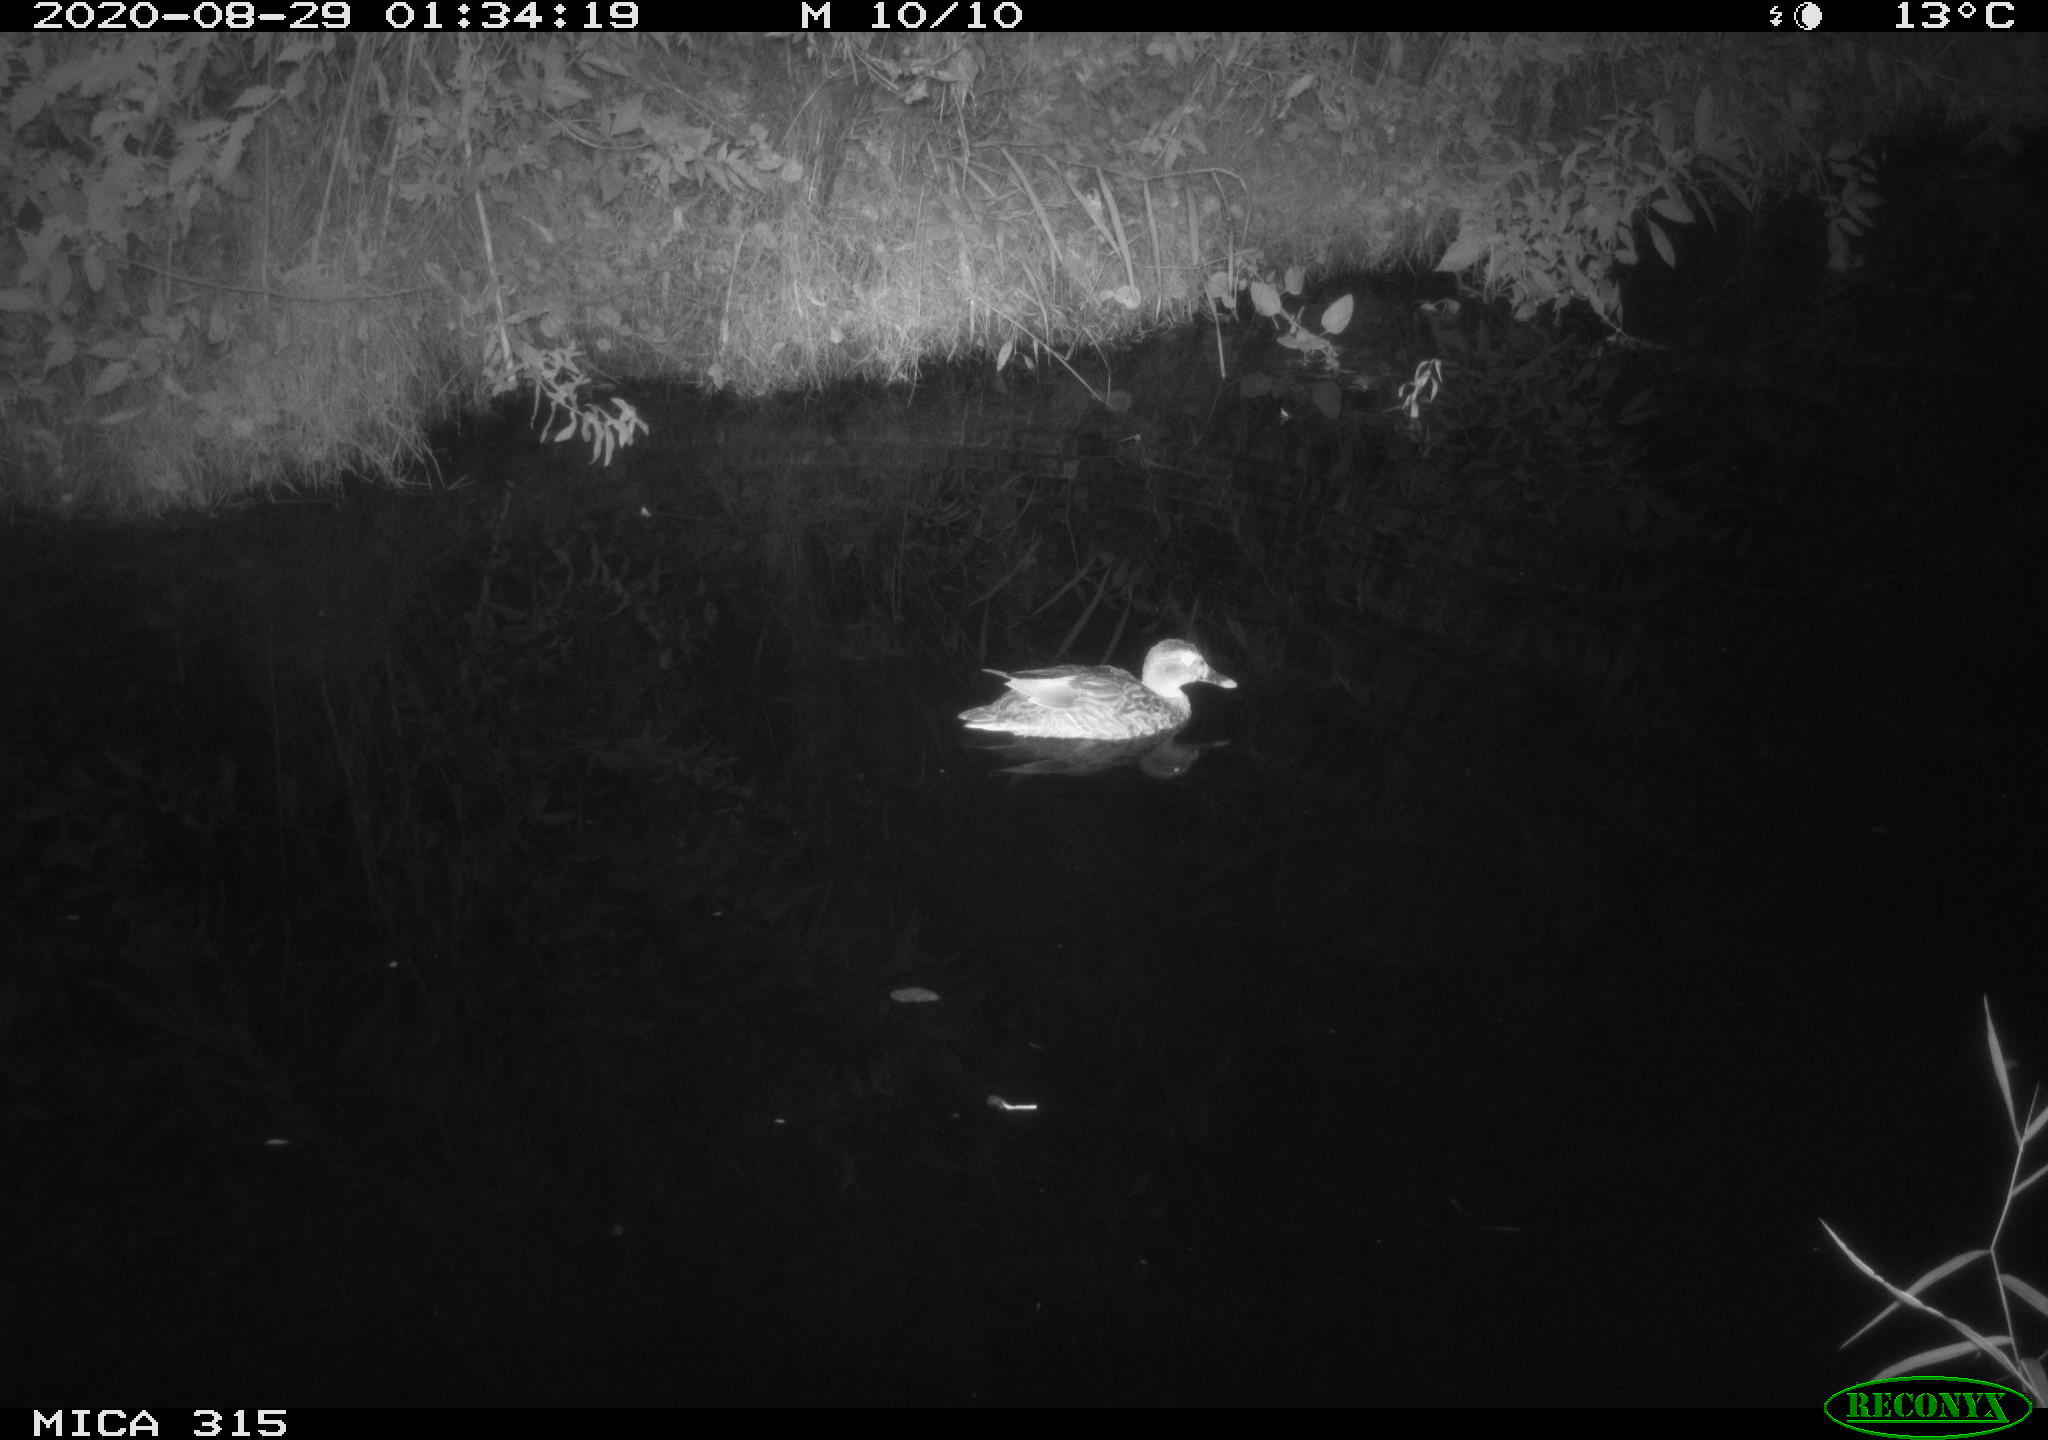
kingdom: Animalia
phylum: Chordata
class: Aves
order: Anseriformes
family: Anatidae
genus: Anas
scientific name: Anas platyrhynchos
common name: Mallard
